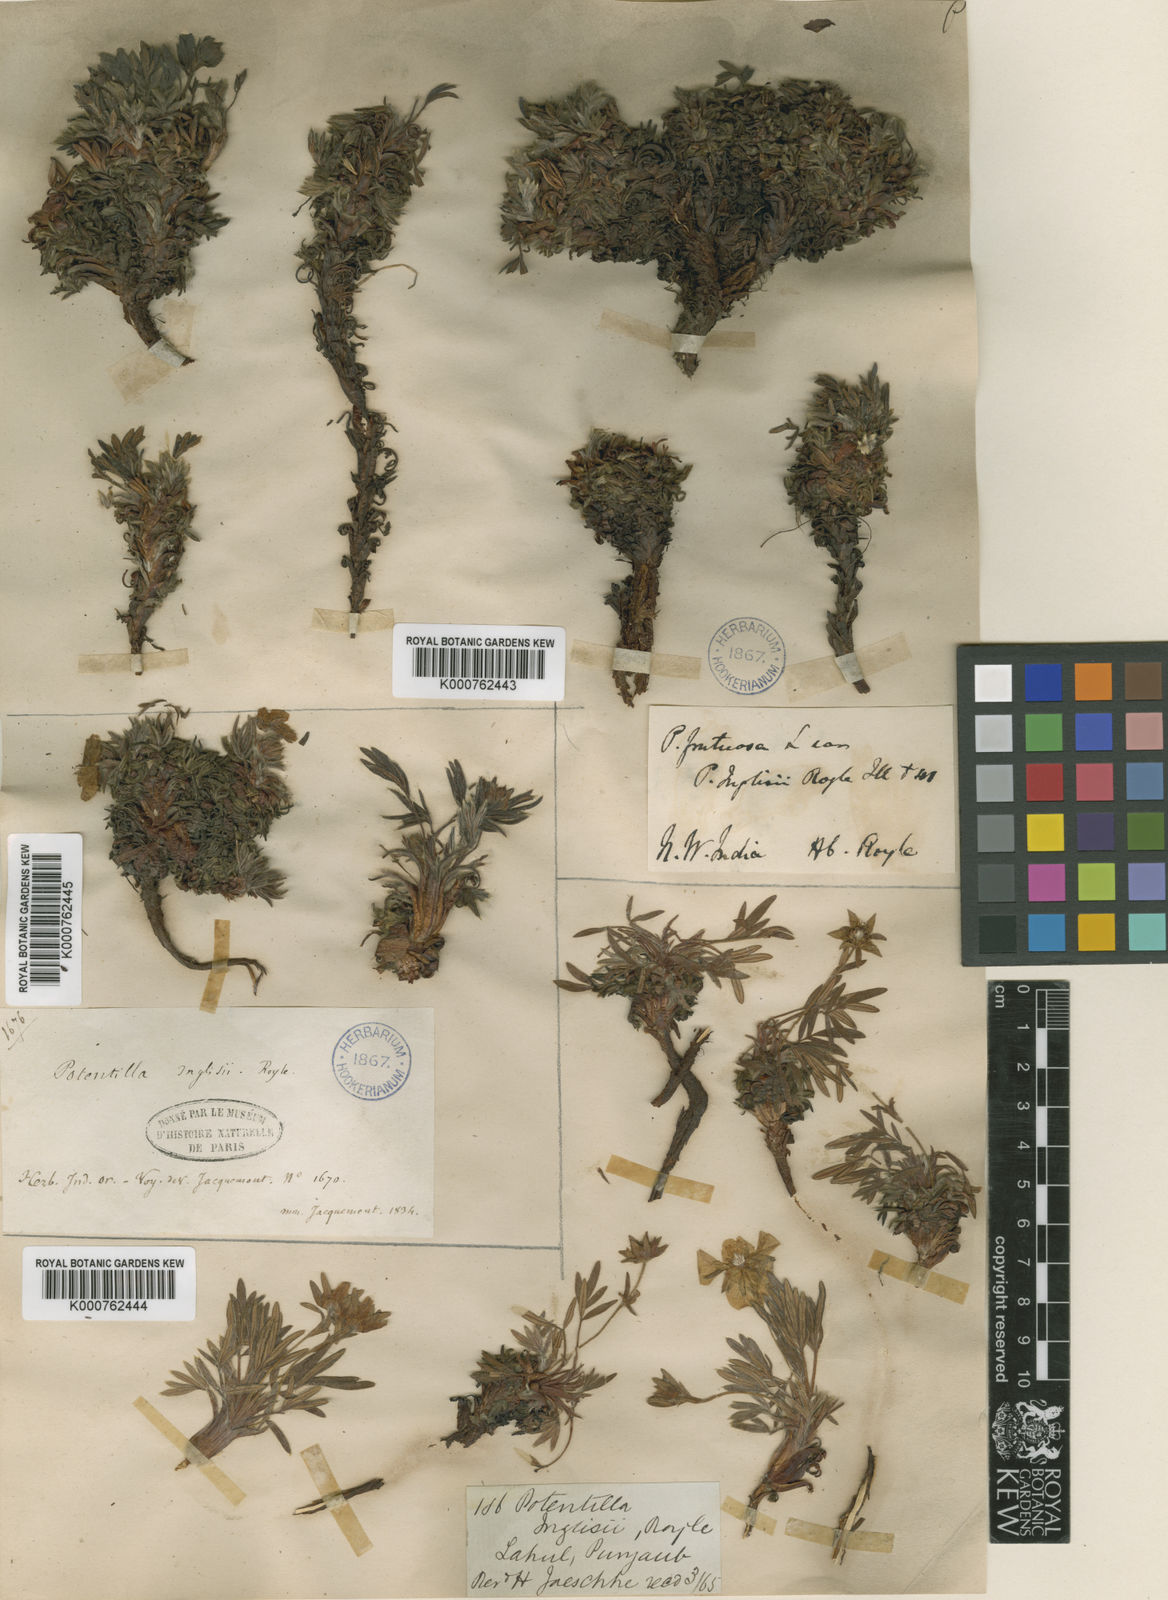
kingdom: Plantae
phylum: Tracheophyta
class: Magnoliopsida
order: Rosales
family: Rosaceae
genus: Dasiphora
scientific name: Dasiphora fruticosa
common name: Shrubby cinquefoil
